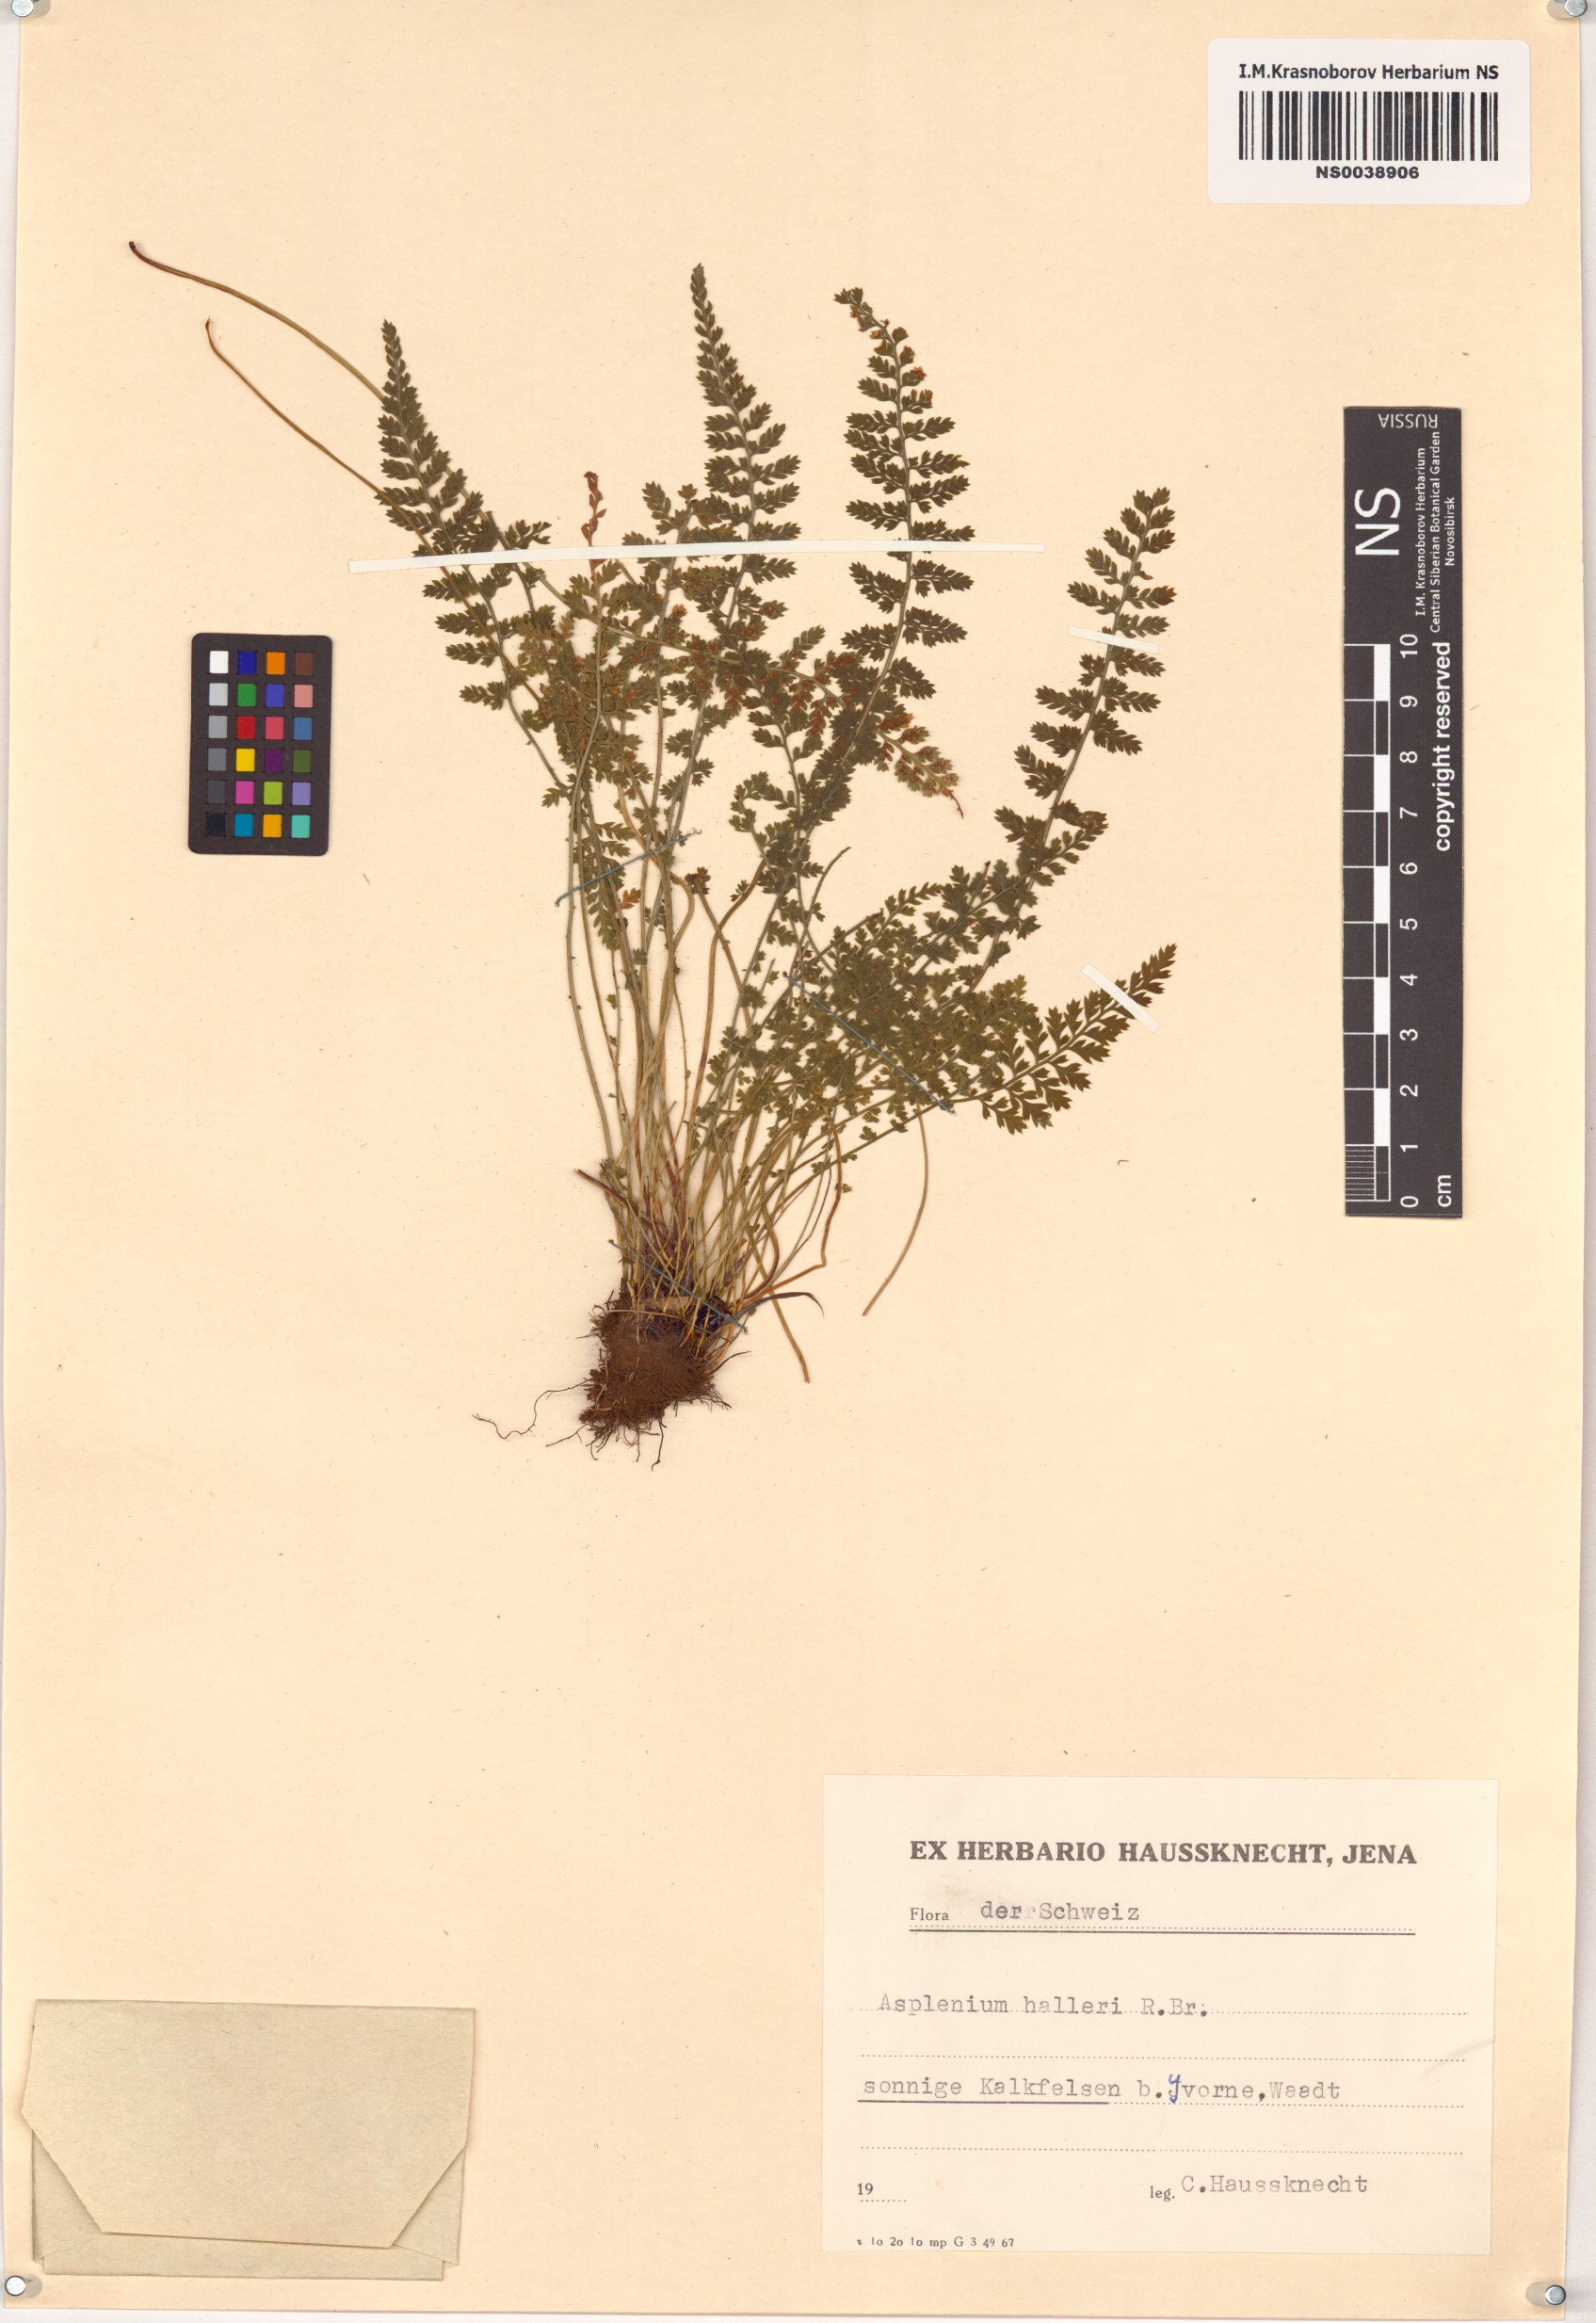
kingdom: Plantae
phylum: Tracheophyta
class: Polypodiopsida
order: Polypodiales
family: Aspleniaceae
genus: Asplenium
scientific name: Asplenium fontanum
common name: Fountain spleenwort
